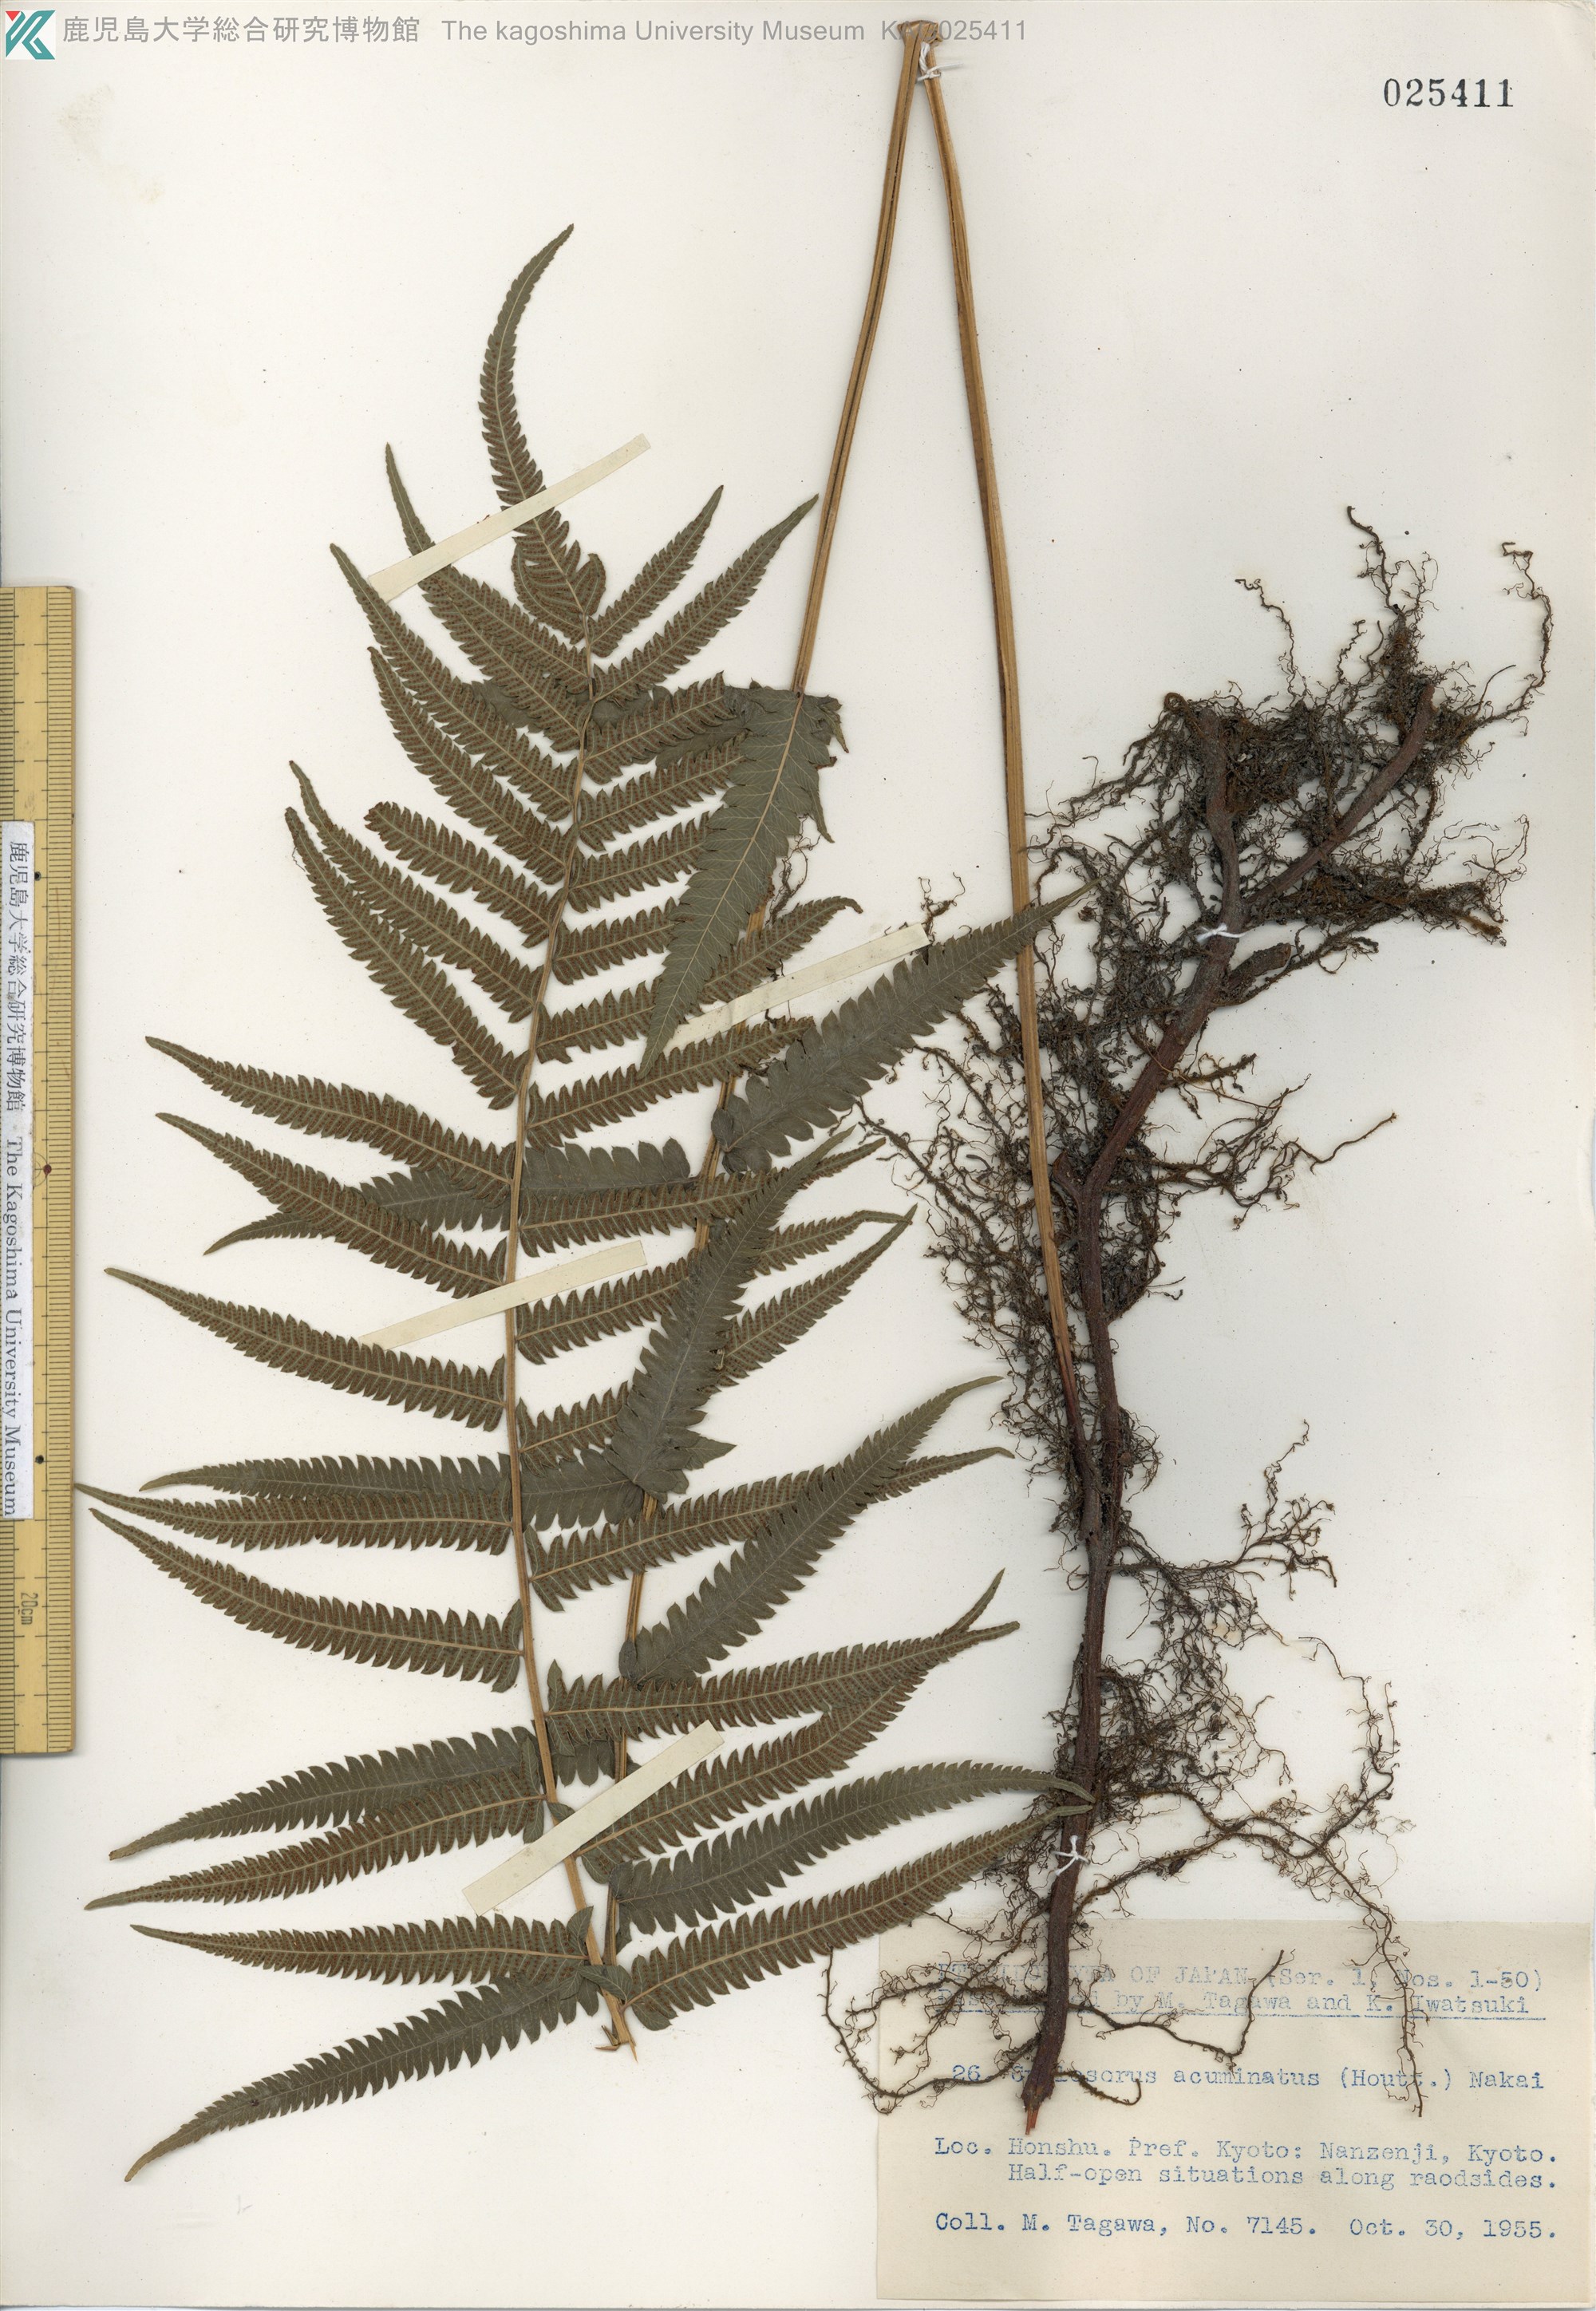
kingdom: Plantae
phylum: Tracheophyta
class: Polypodiopsida
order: Polypodiales
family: Thelypteridaceae
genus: Christella
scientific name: Christella acuminata
